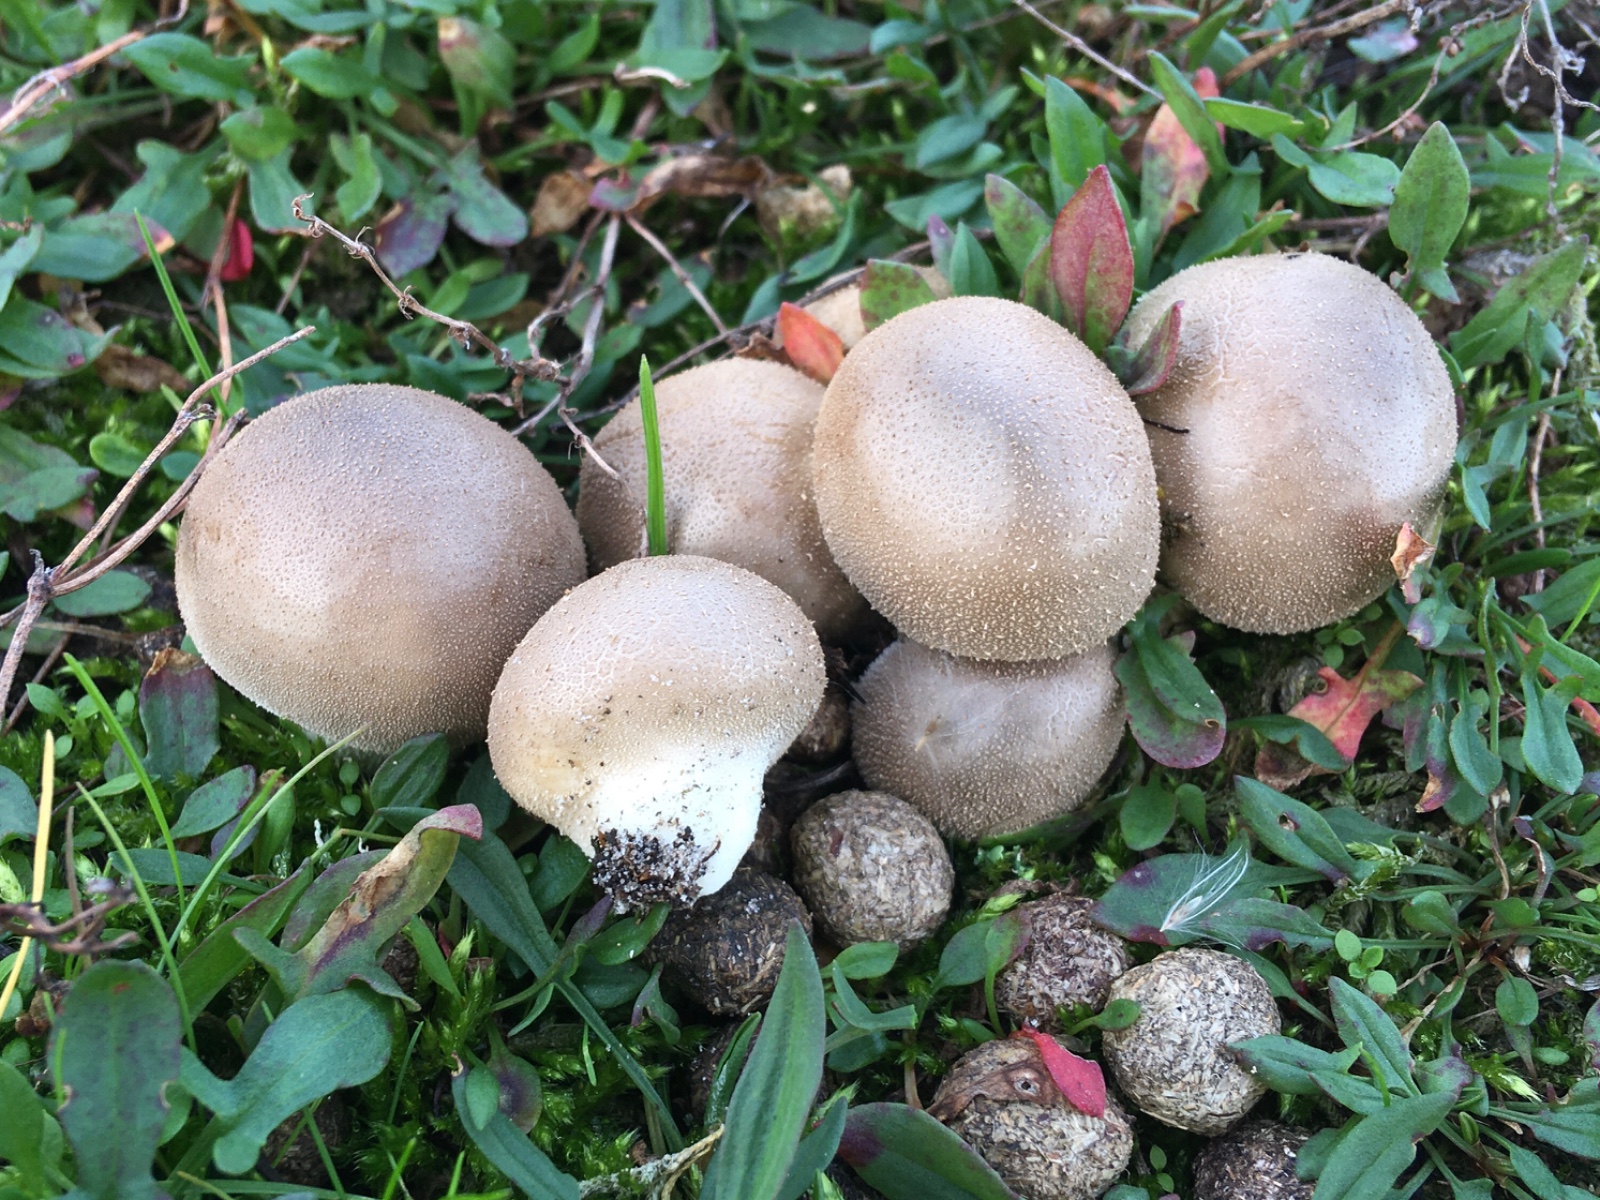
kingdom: Fungi
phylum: Basidiomycota
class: Agaricomycetes
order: Agaricales
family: Lycoperdaceae
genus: Lycoperdon
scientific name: Lycoperdon lividum
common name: mark-støvbold
